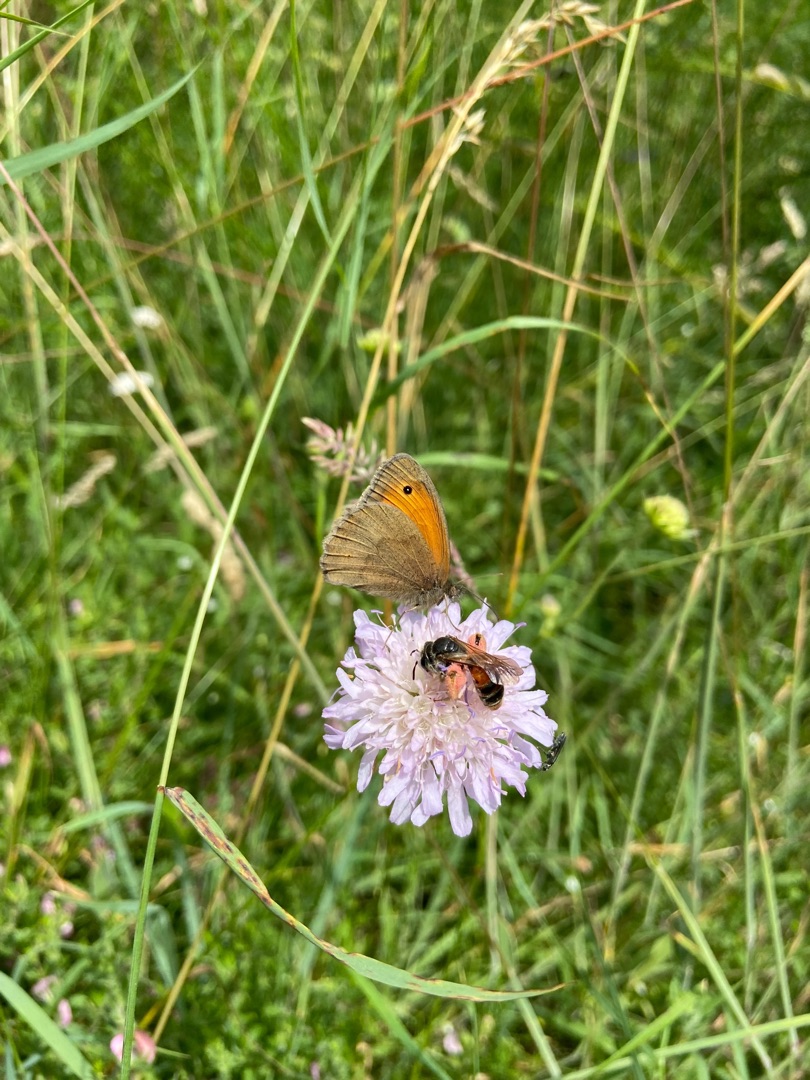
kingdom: Animalia
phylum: Arthropoda
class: Insecta
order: Hymenoptera
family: Andrenidae
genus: Andrena
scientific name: Andrena hattorfiana
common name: Blåhatjordbi
